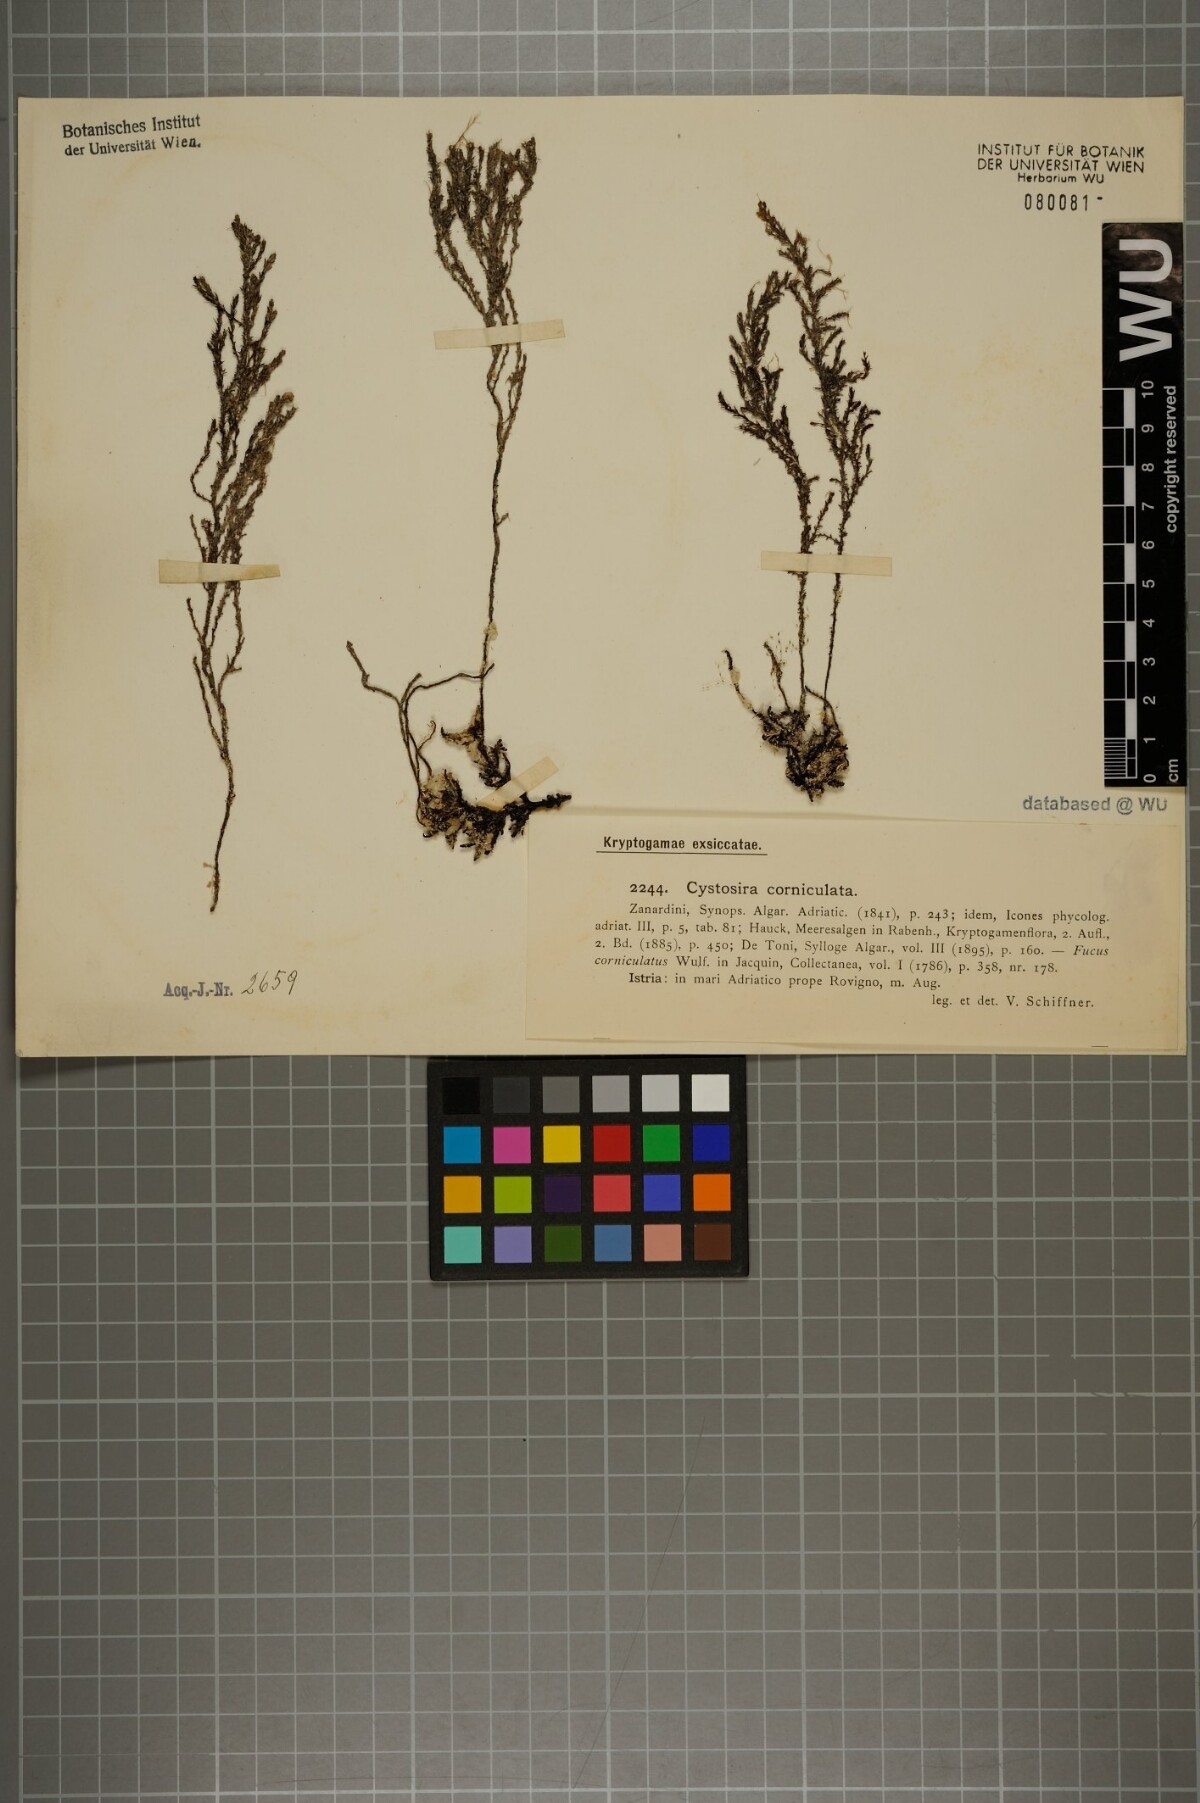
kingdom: Chromista
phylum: Ochrophyta
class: Phaeophyceae
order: Fucales
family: Sargassaceae
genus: Cystoseira
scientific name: Cystoseira corniculata
